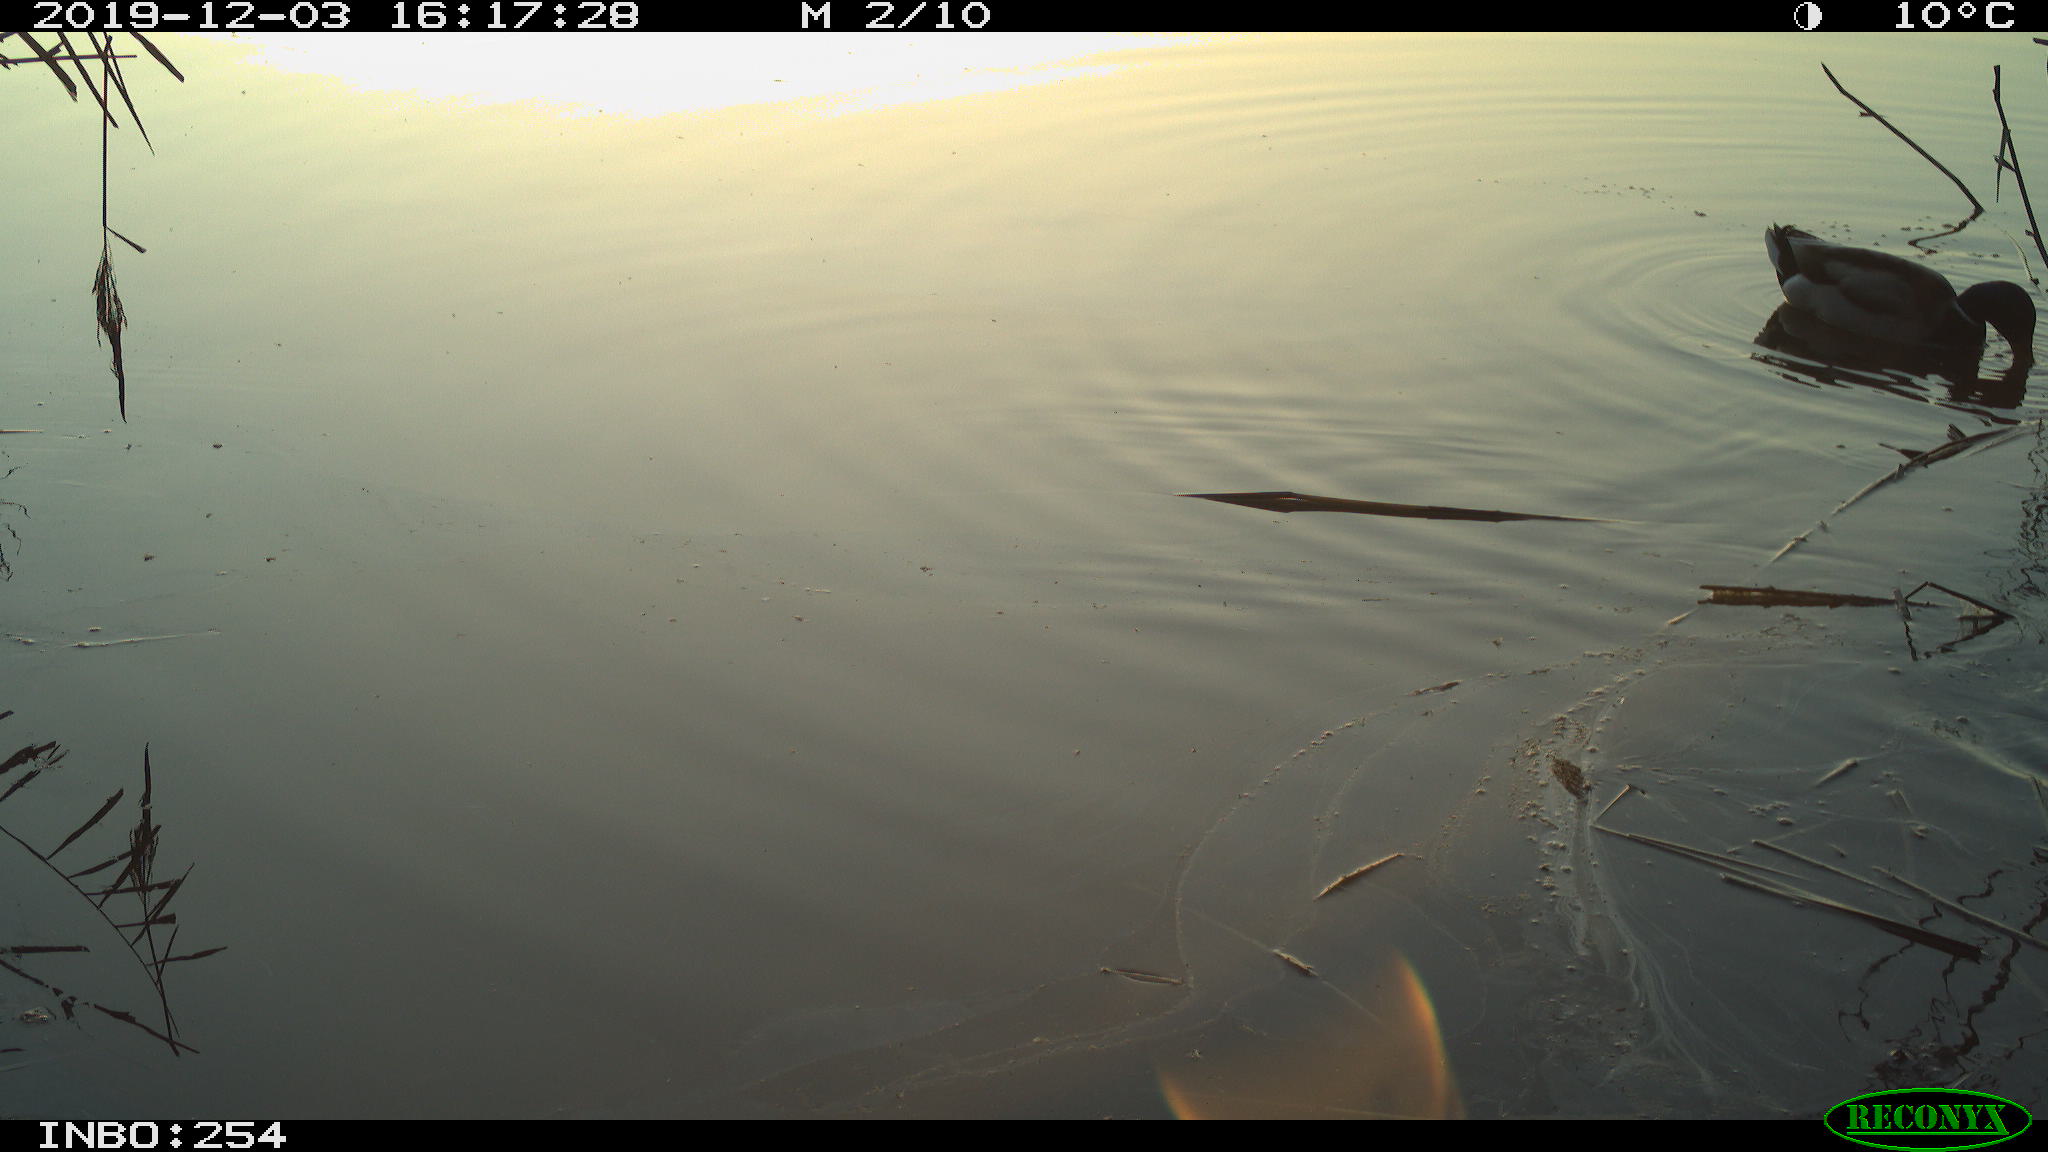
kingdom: Animalia
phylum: Chordata
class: Aves
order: Anseriformes
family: Anatidae
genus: Anas
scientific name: Anas platyrhynchos
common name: Mallard
